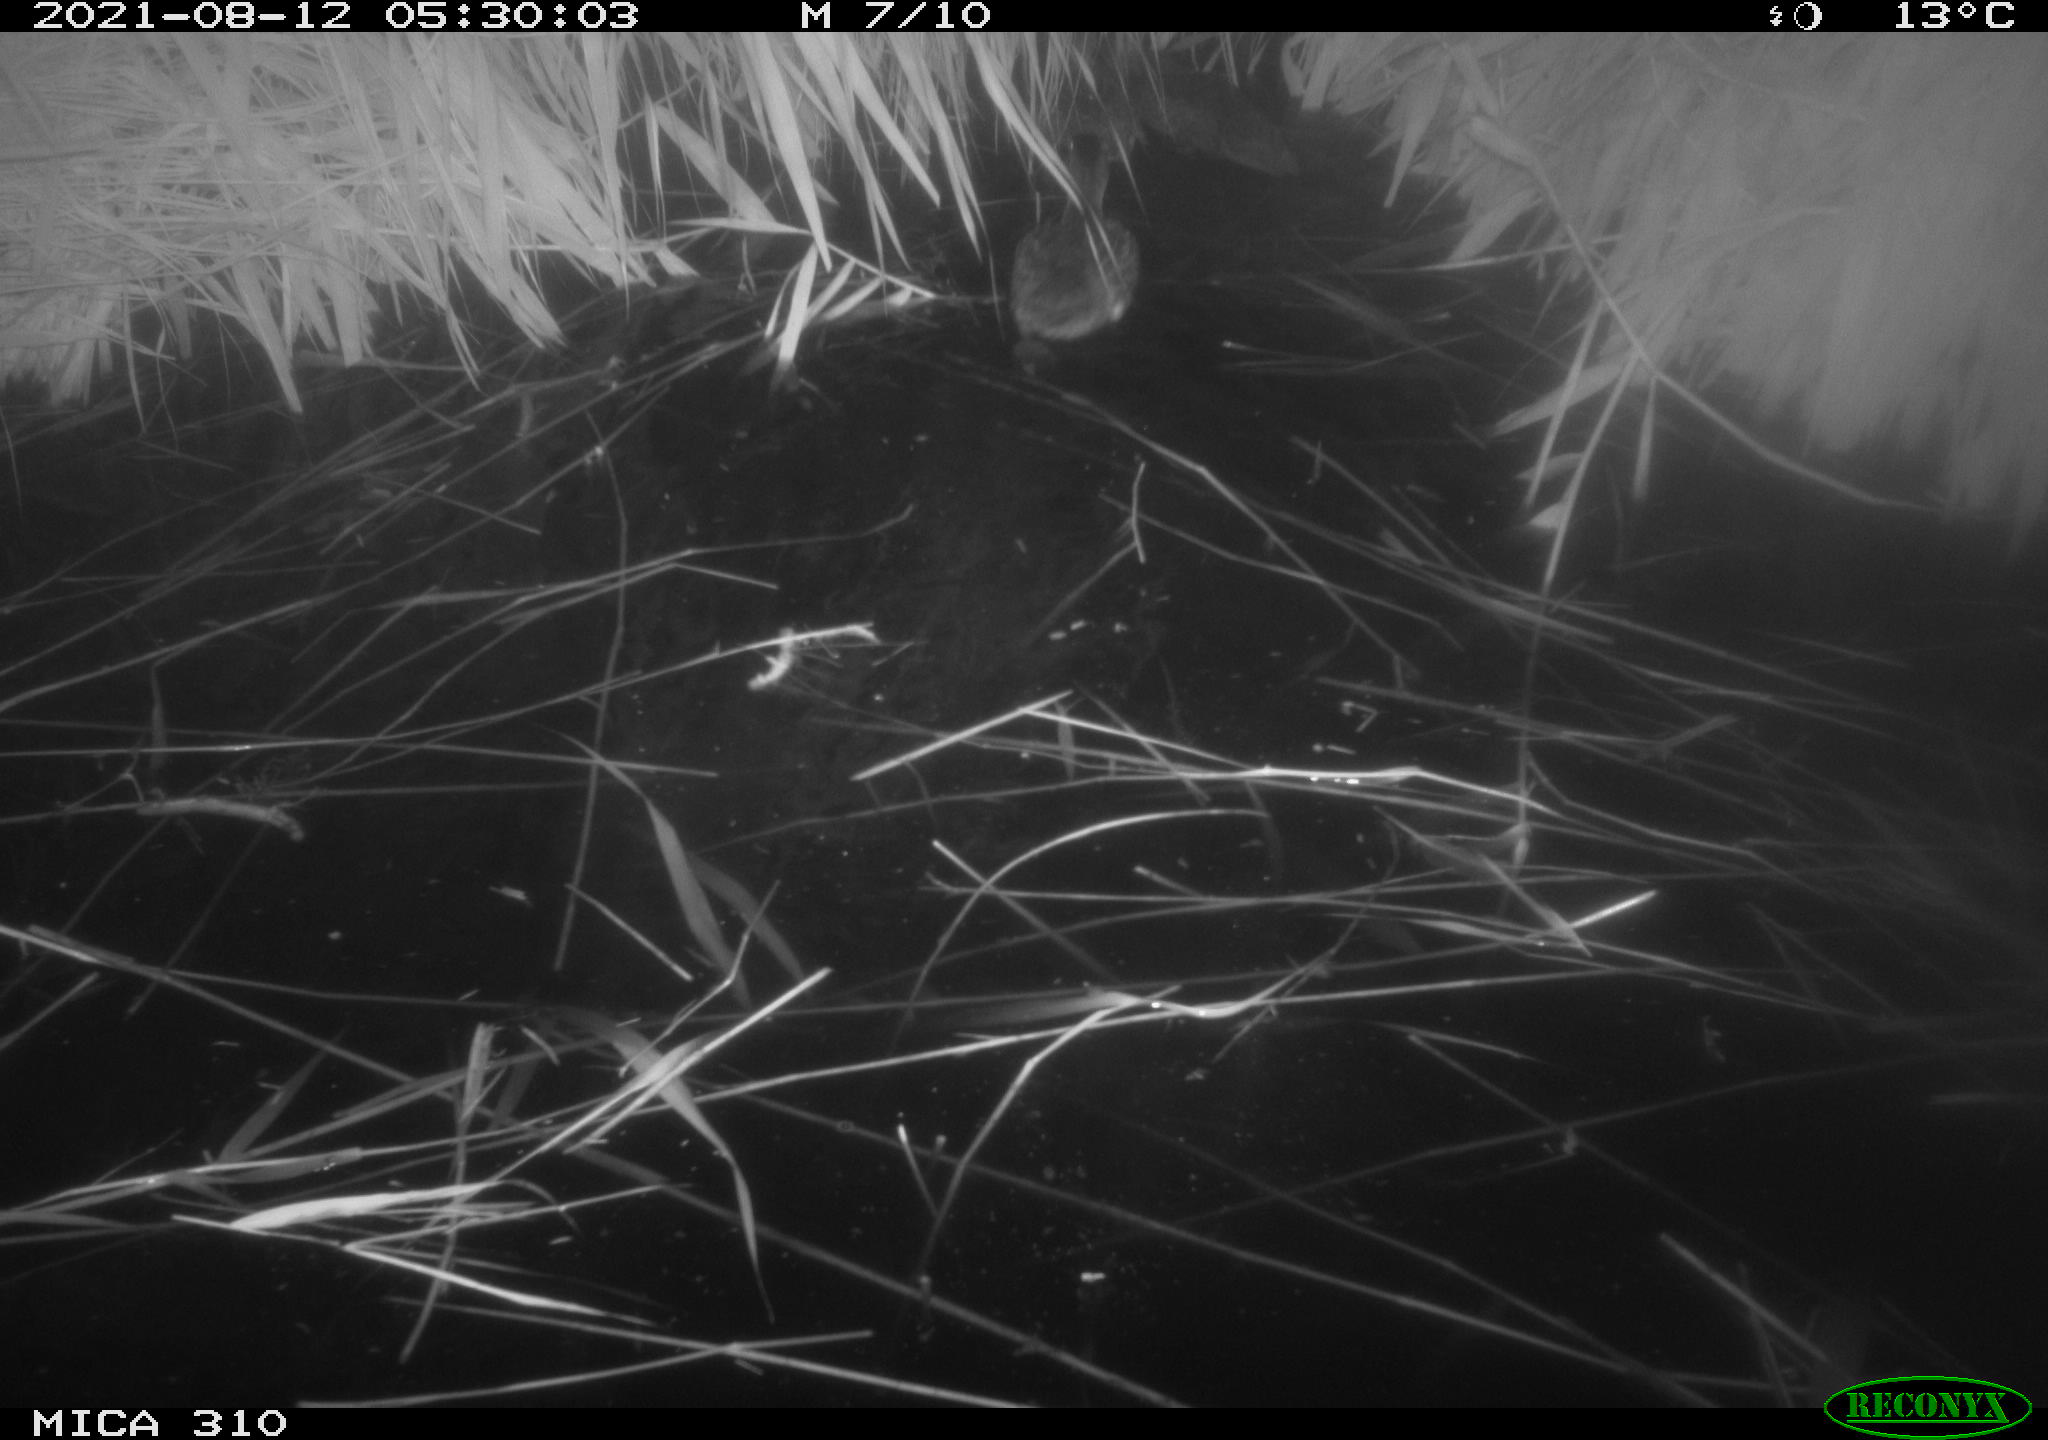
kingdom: Animalia
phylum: Chordata
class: Aves
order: Anseriformes
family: Anatidae
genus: Anas
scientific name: Anas platyrhynchos
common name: Mallard
